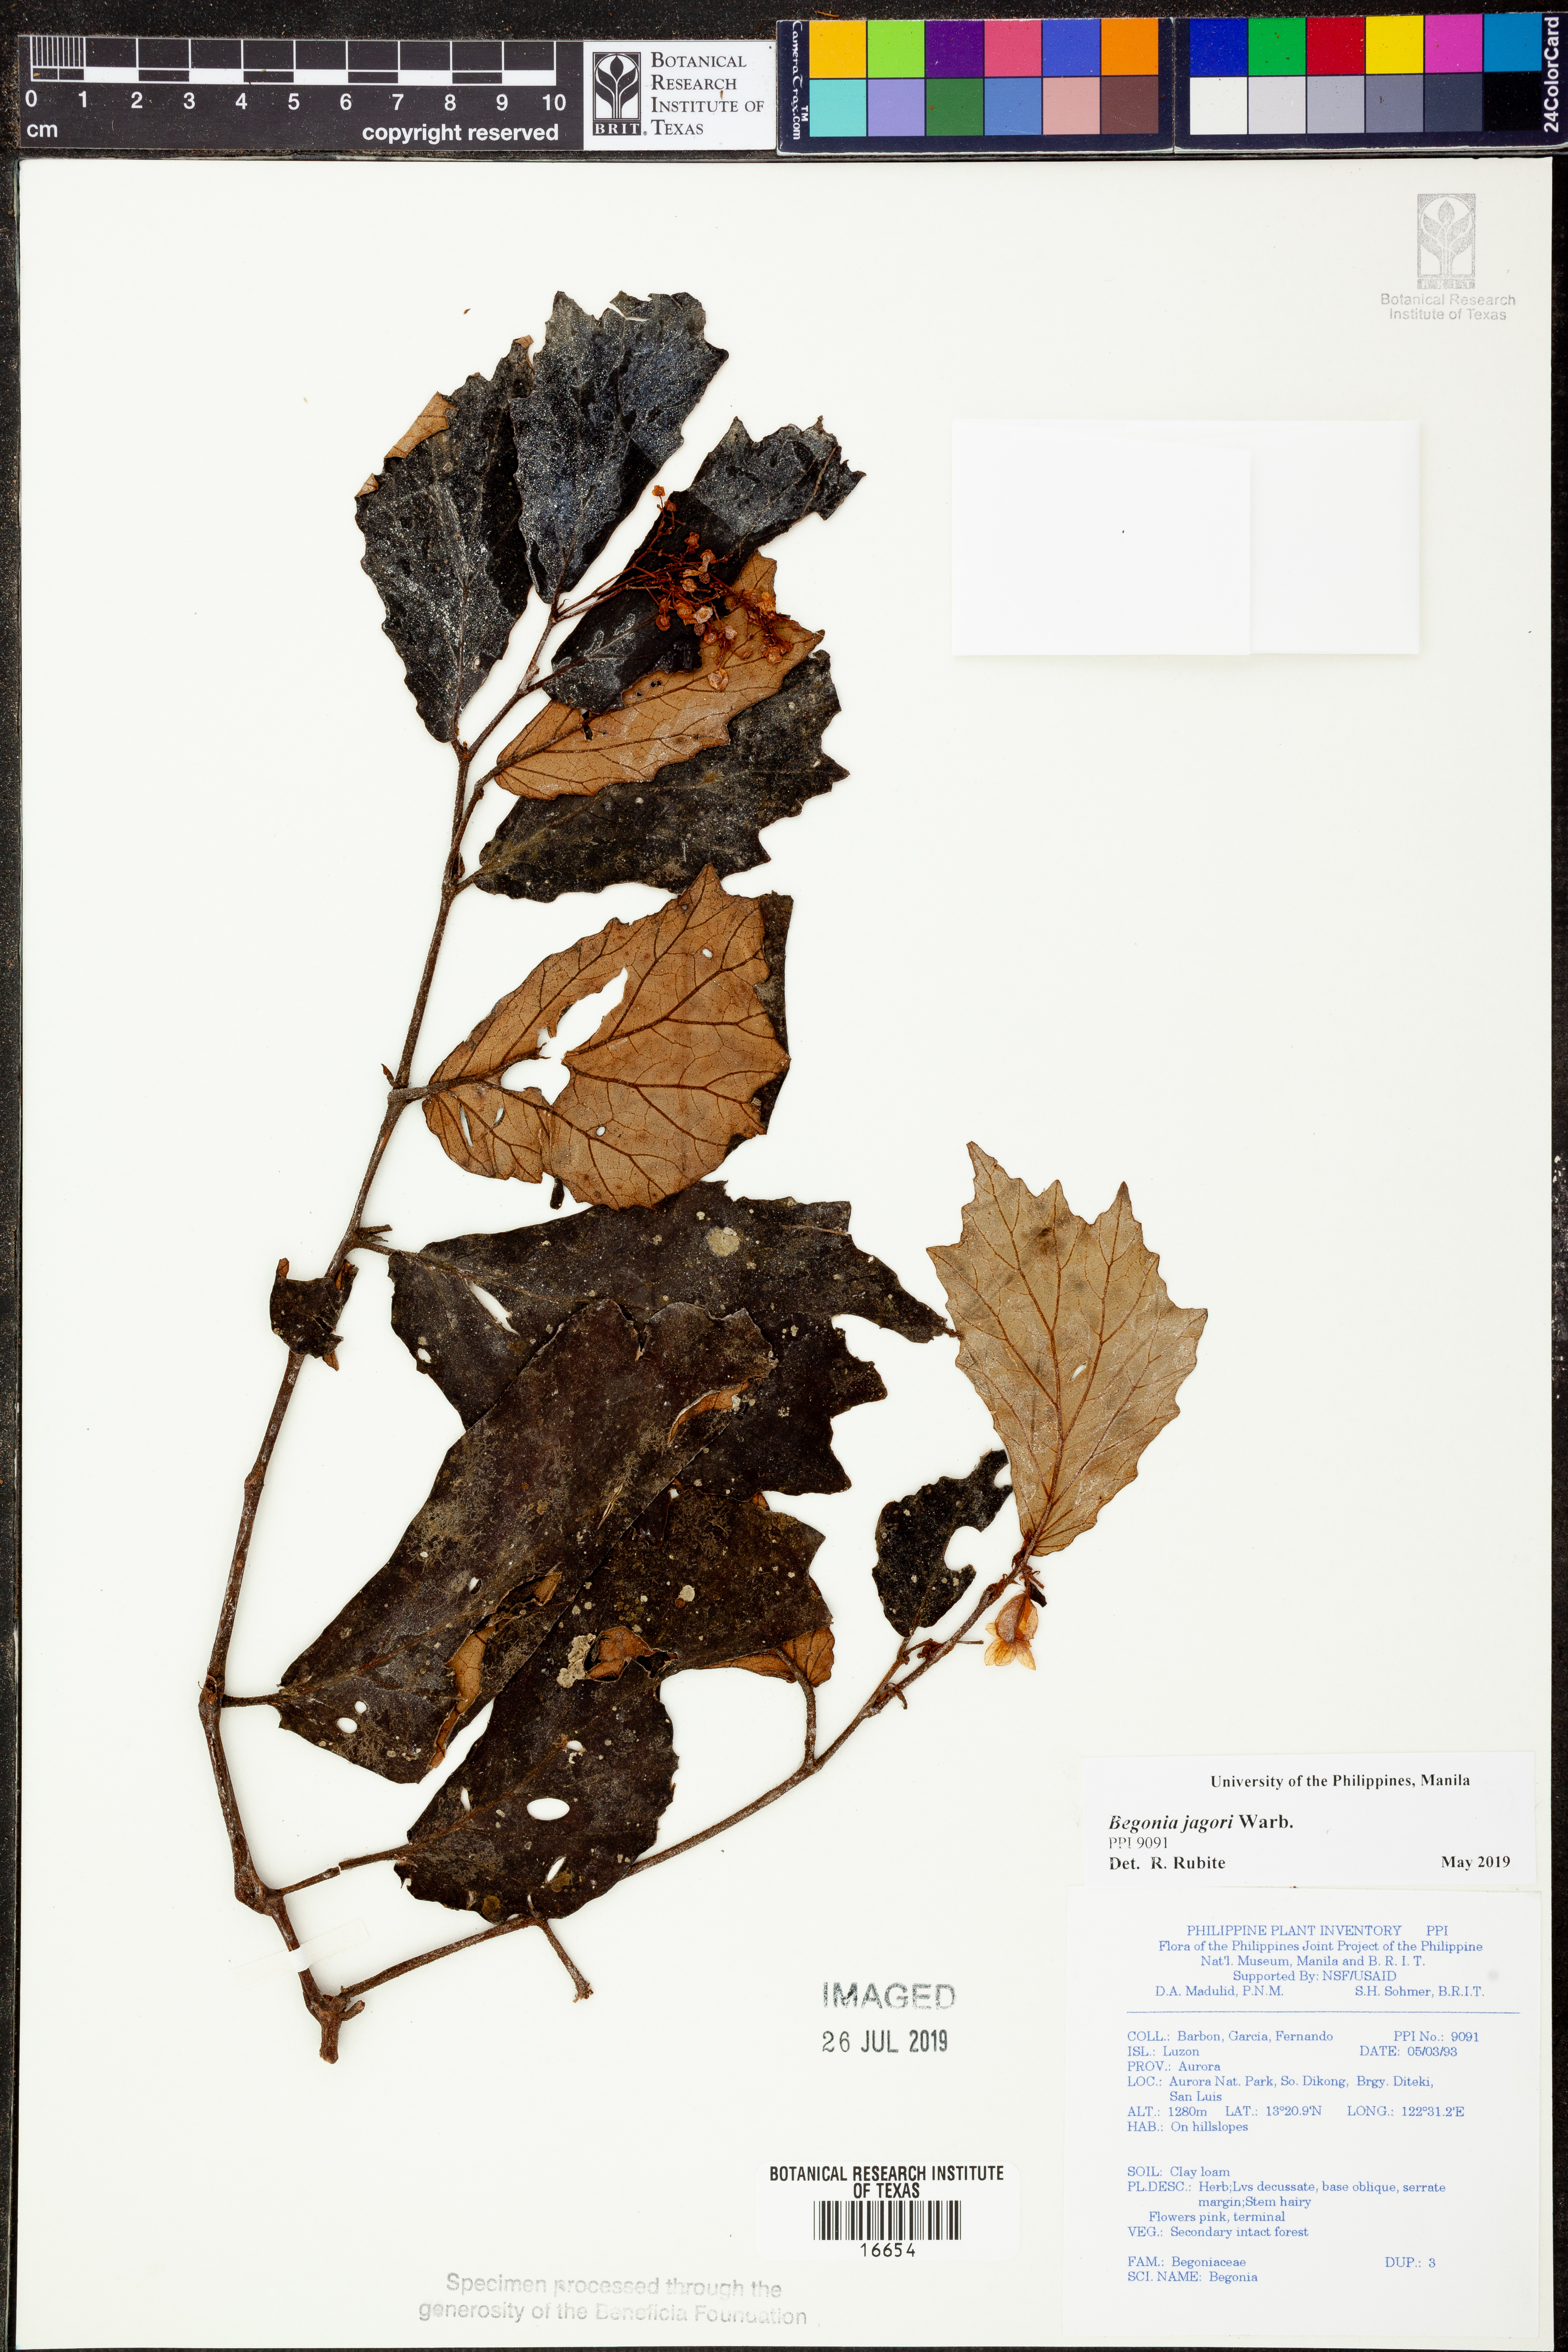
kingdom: Plantae
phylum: Tracheophyta
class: Magnoliopsida
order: Cucurbitales
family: Begoniaceae
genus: Begonia
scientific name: Begonia jagorii
